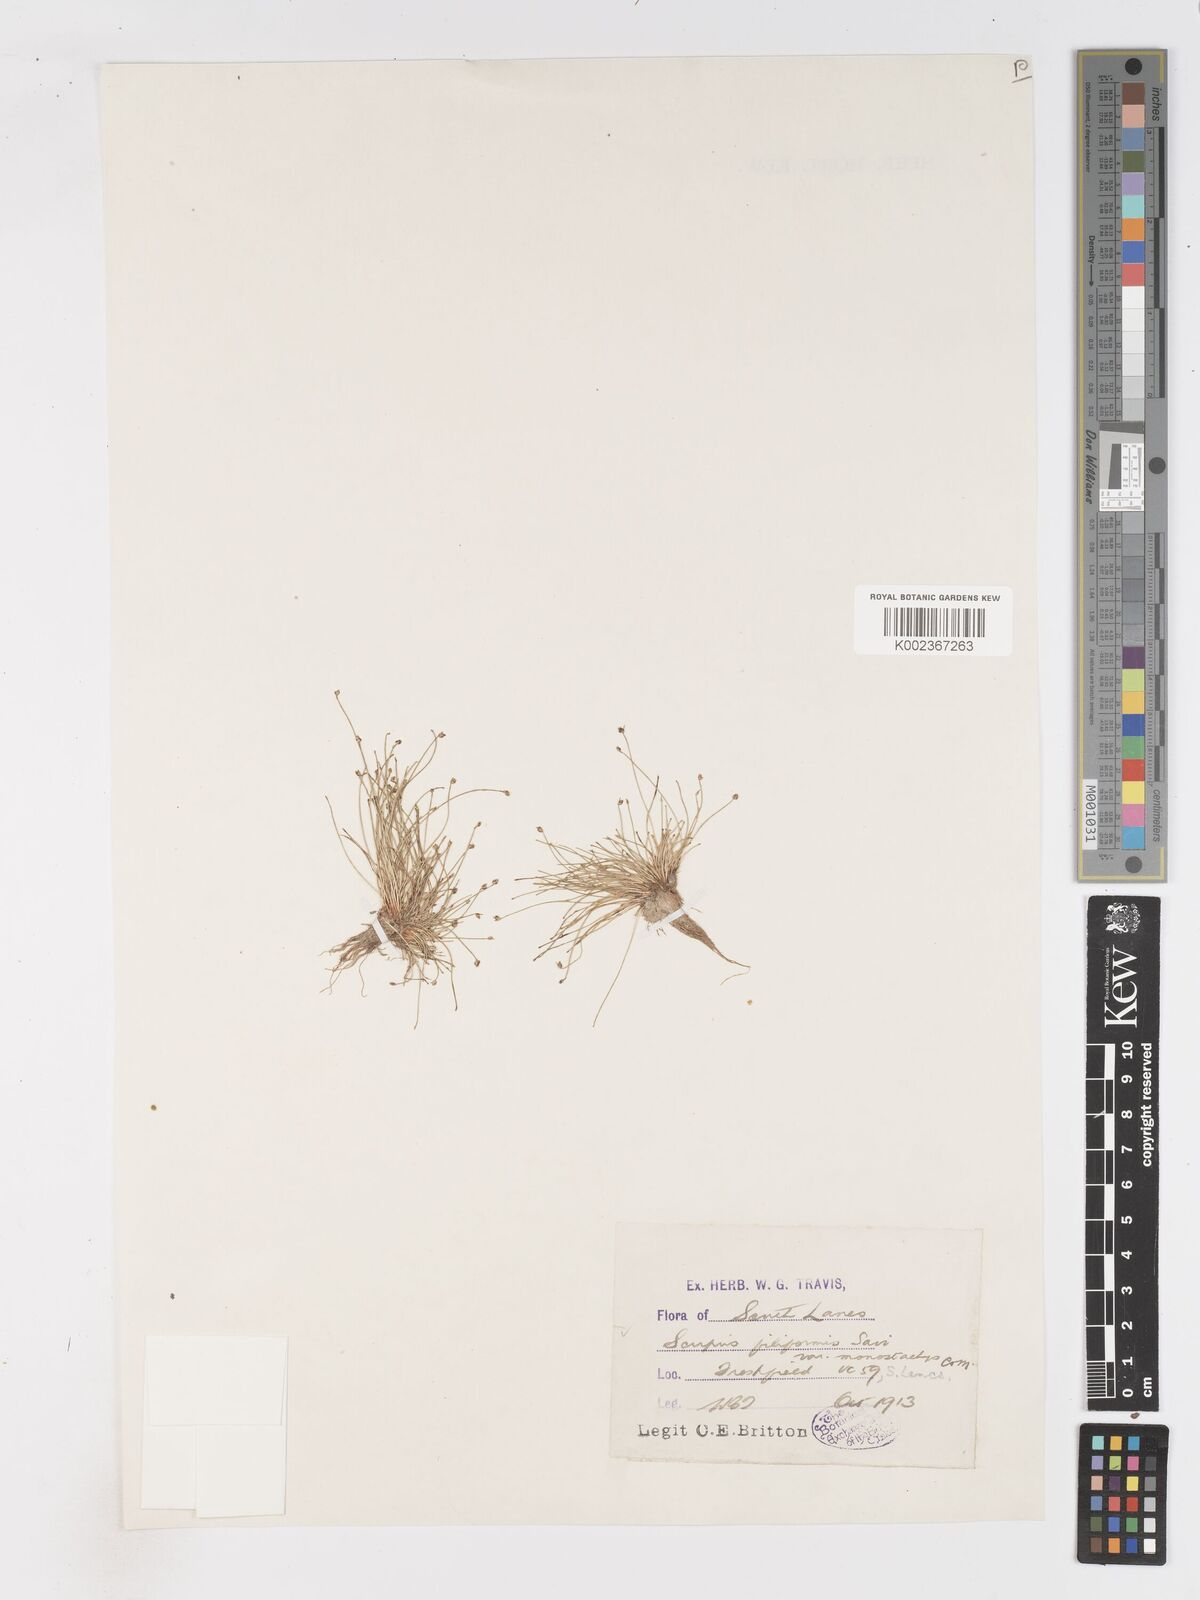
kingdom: Plantae
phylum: Tracheophyta
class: Liliopsida
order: Poales
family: Cyperaceae
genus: Isolepis
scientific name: Isolepis cernua
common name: Slender club-rush
